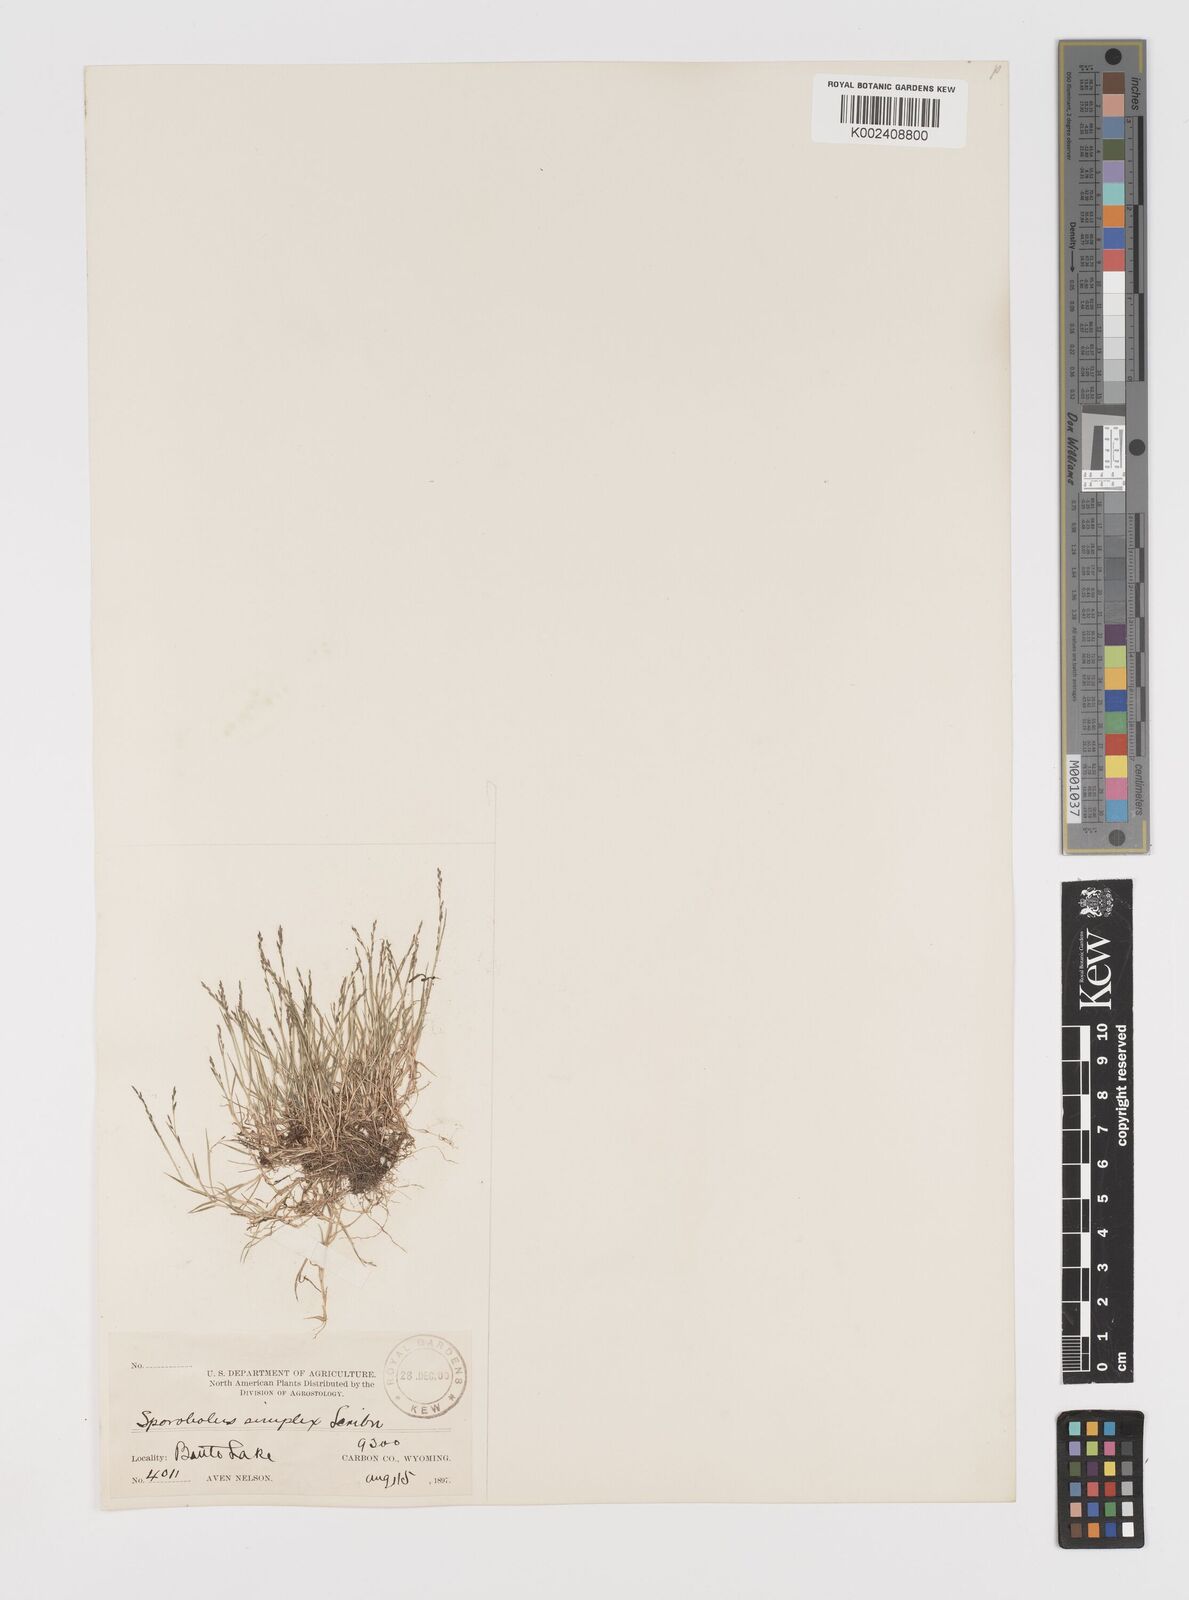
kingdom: Plantae
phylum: Tracheophyta
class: Liliopsida
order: Poales
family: Poaceae
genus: Leptochloa
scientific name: Leptochloa mucronata
